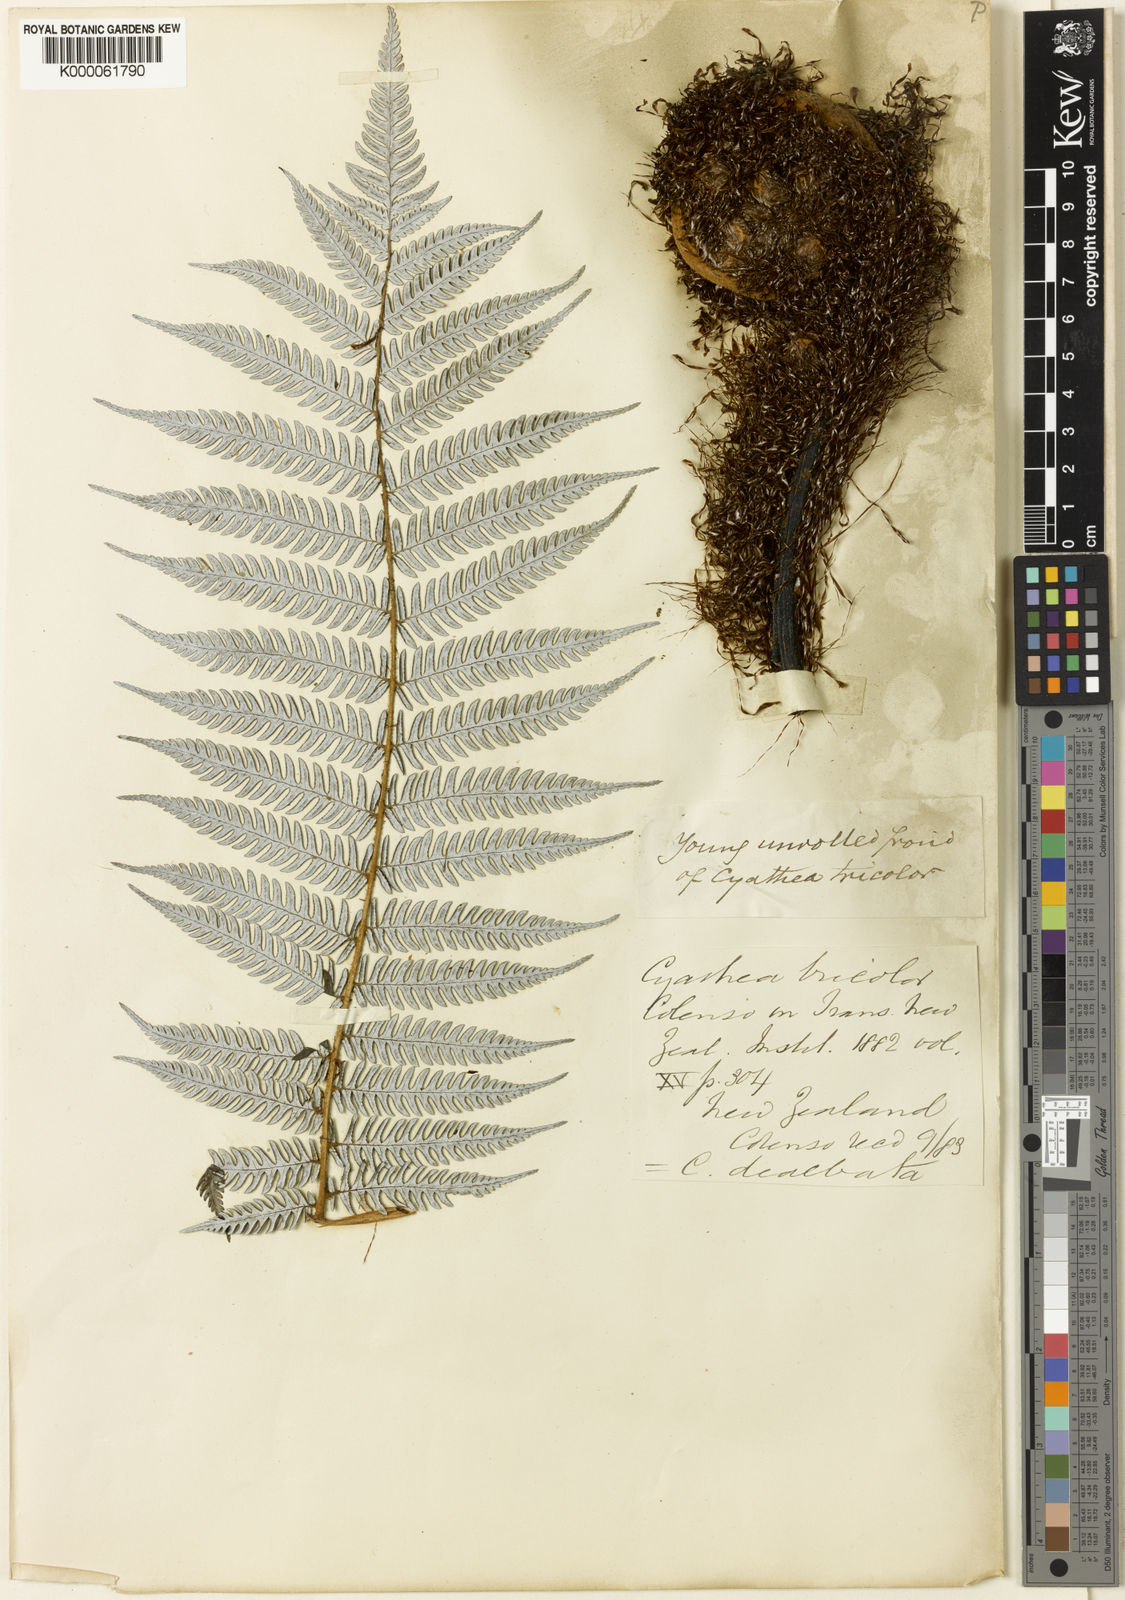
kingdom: Plantae
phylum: Tracheophyta
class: Polypodiopsida
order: Cyatheales
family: Cyatheaceae
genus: Alsophila
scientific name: Alsophila dealbata
